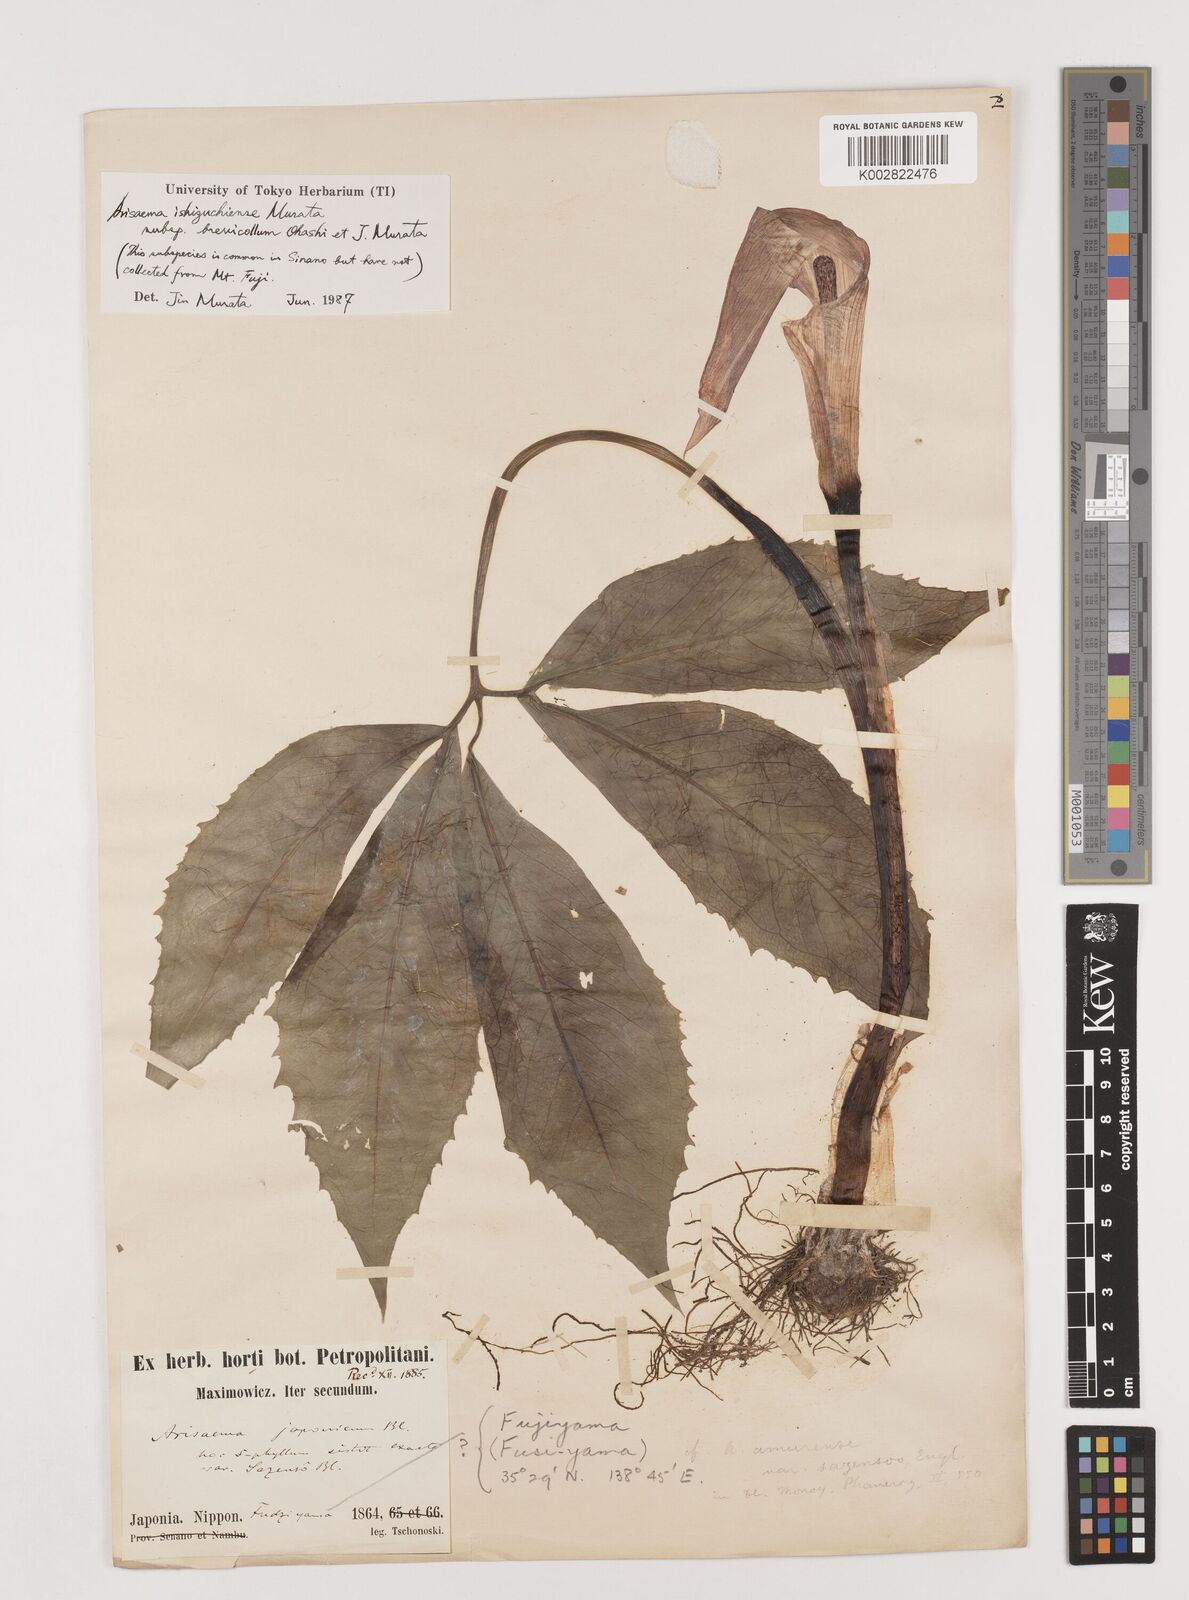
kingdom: Plantae
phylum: Tracheophyta
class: Liliopsida
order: Alismatales
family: Araceae
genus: Arisaema
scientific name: Arisaema nikoense
